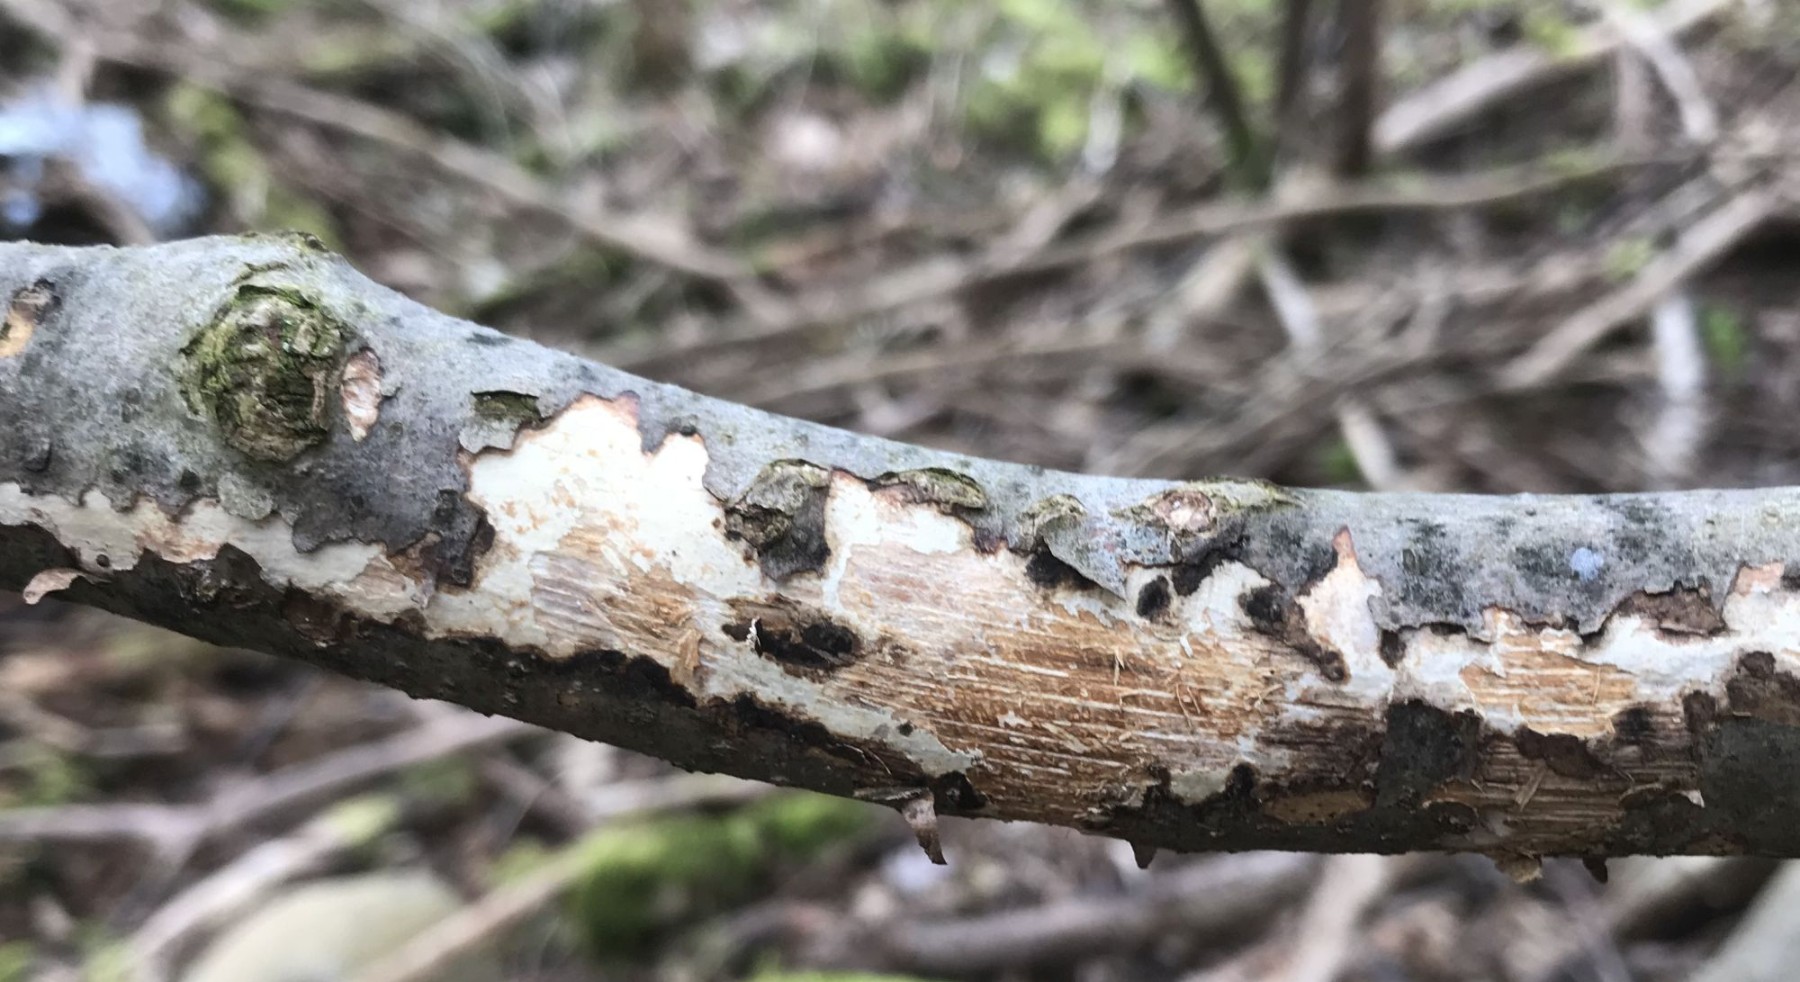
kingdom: Fungi
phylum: Basidiomycota
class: Agaricomycetes
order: Corticiales
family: Corticiaceae
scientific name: Corticiaceae
